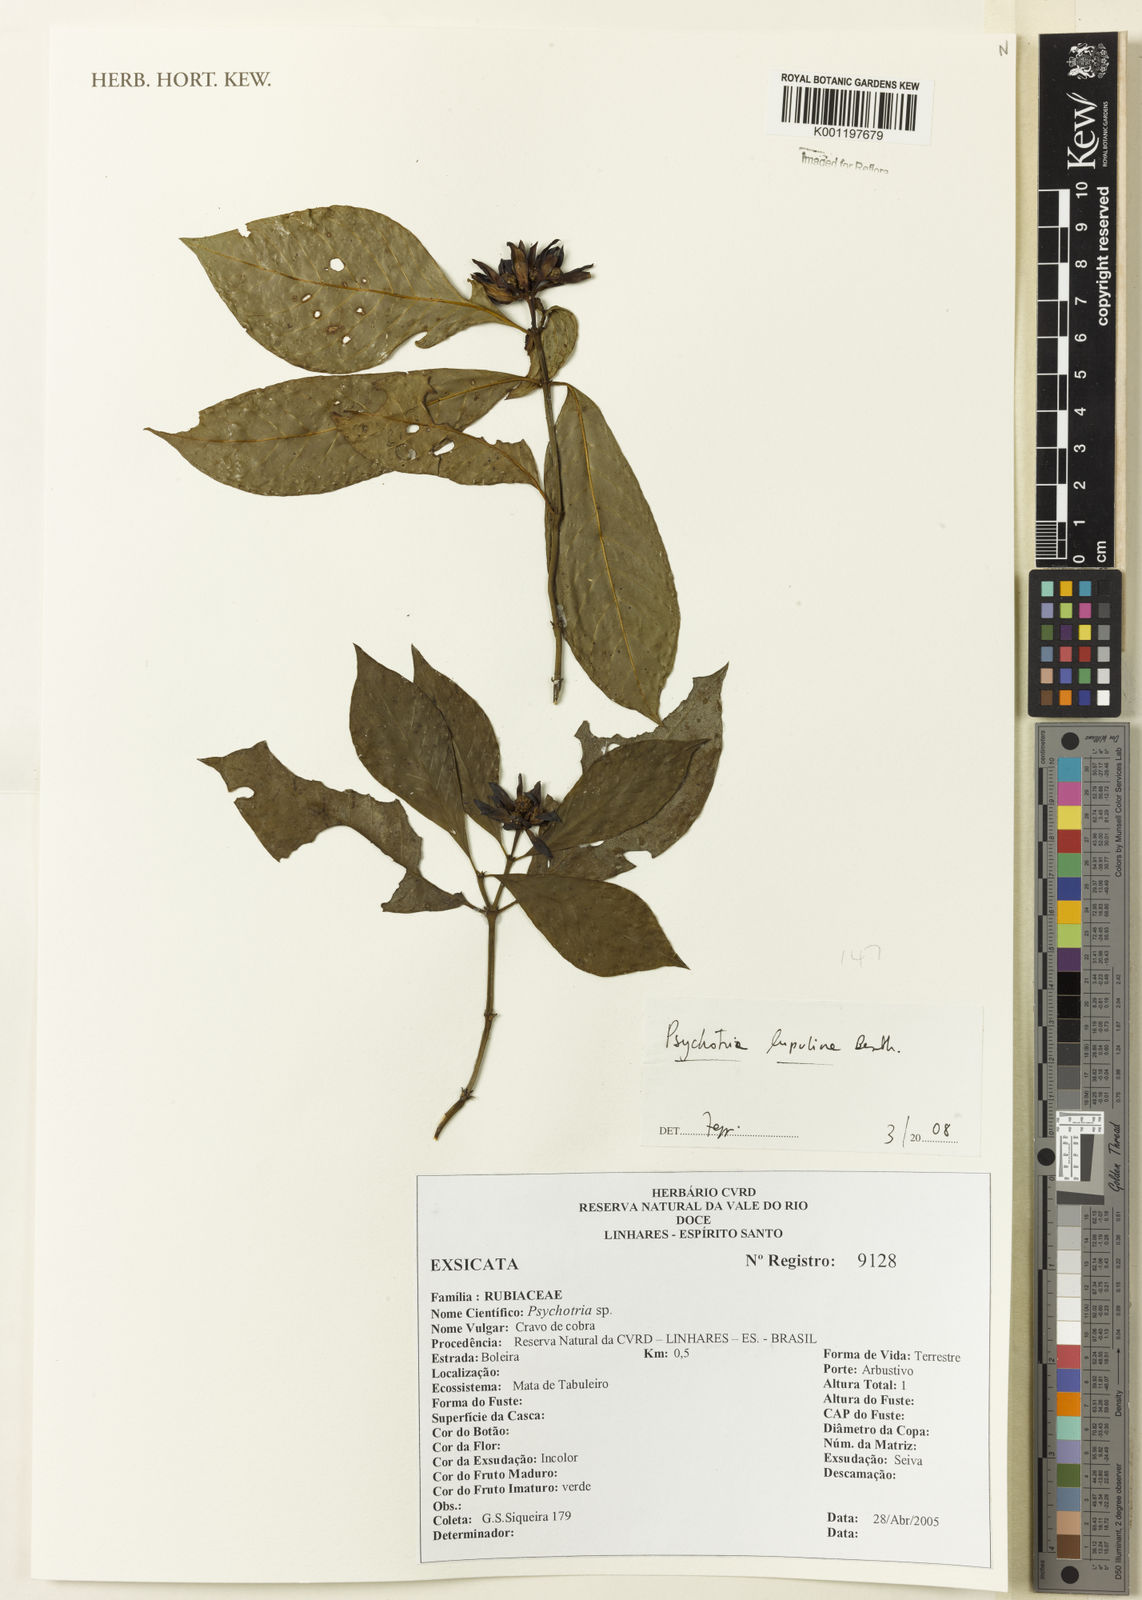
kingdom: Plantae
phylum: Tracheophyta
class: Magnoliopsida
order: Gentianales
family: Rubiaceae
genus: Palicourea
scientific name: Palicourea justiciifolia
